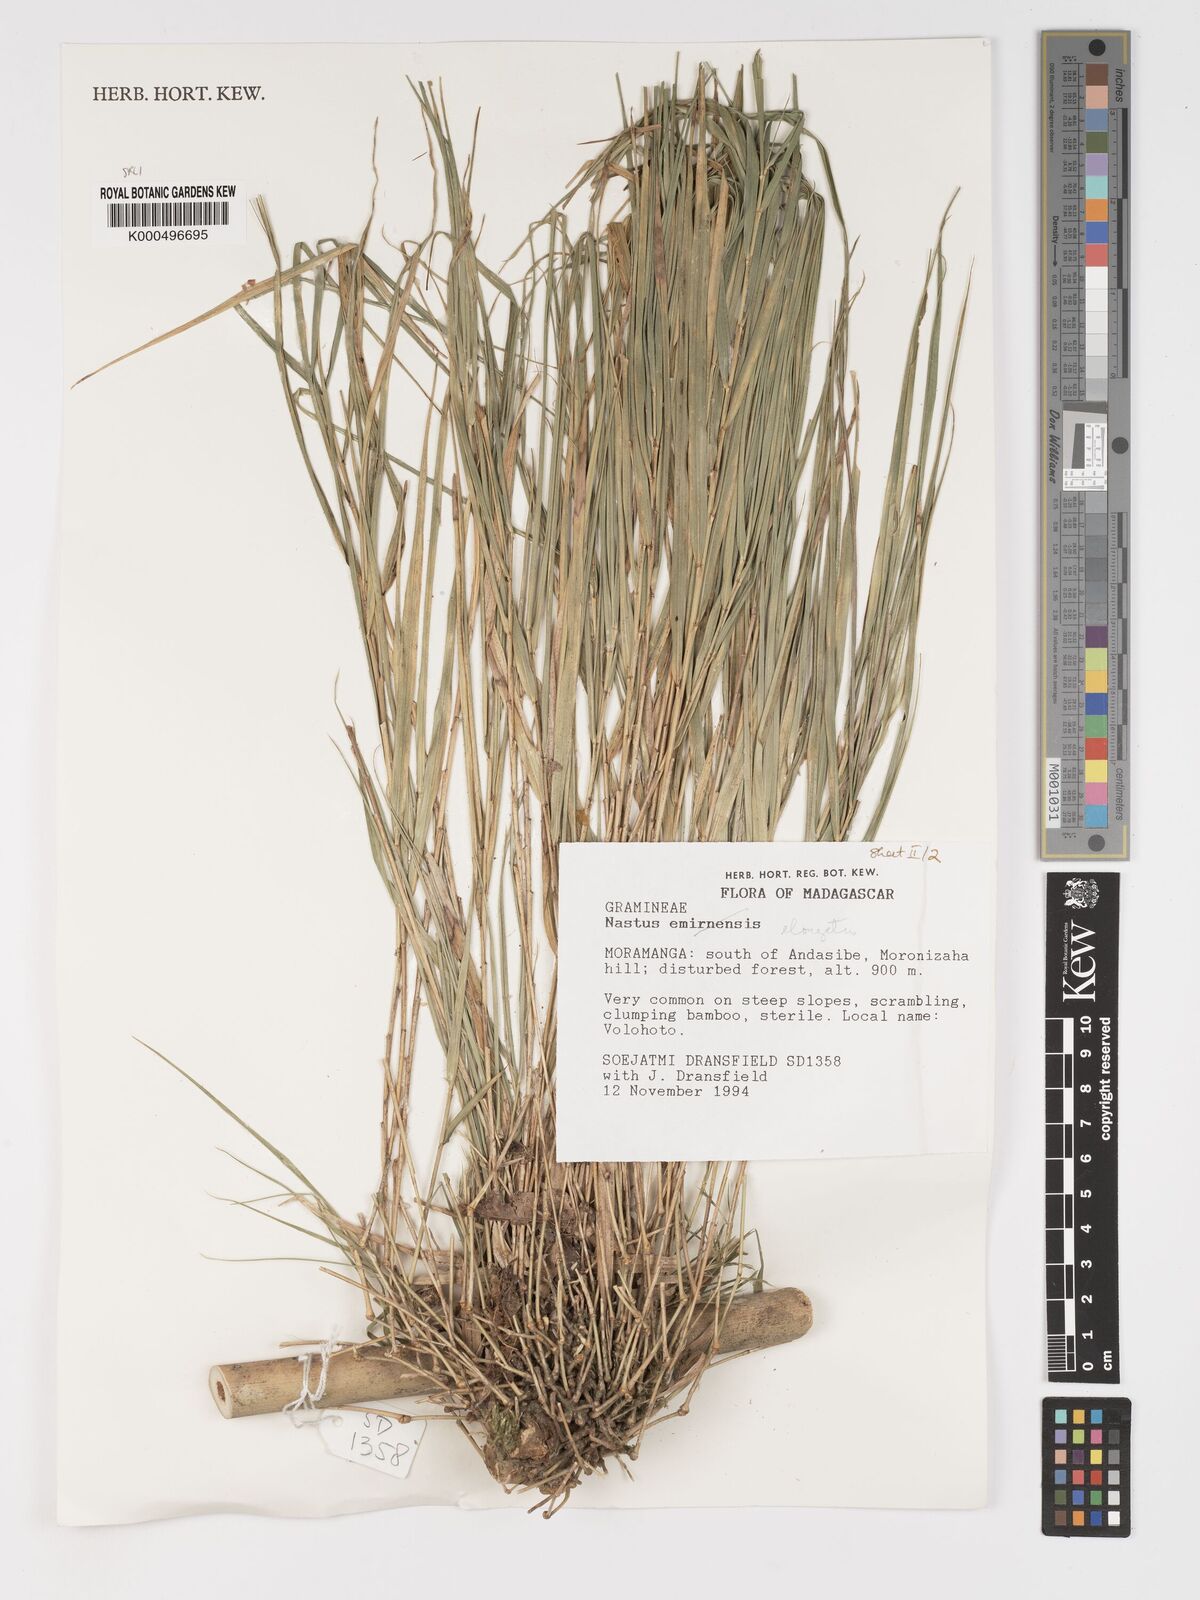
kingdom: Plantae
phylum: Tracheophyta
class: Liliopsida
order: Poales
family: Poaceae
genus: Nastus
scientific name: Nastus elongatus
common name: Spider bamboo
